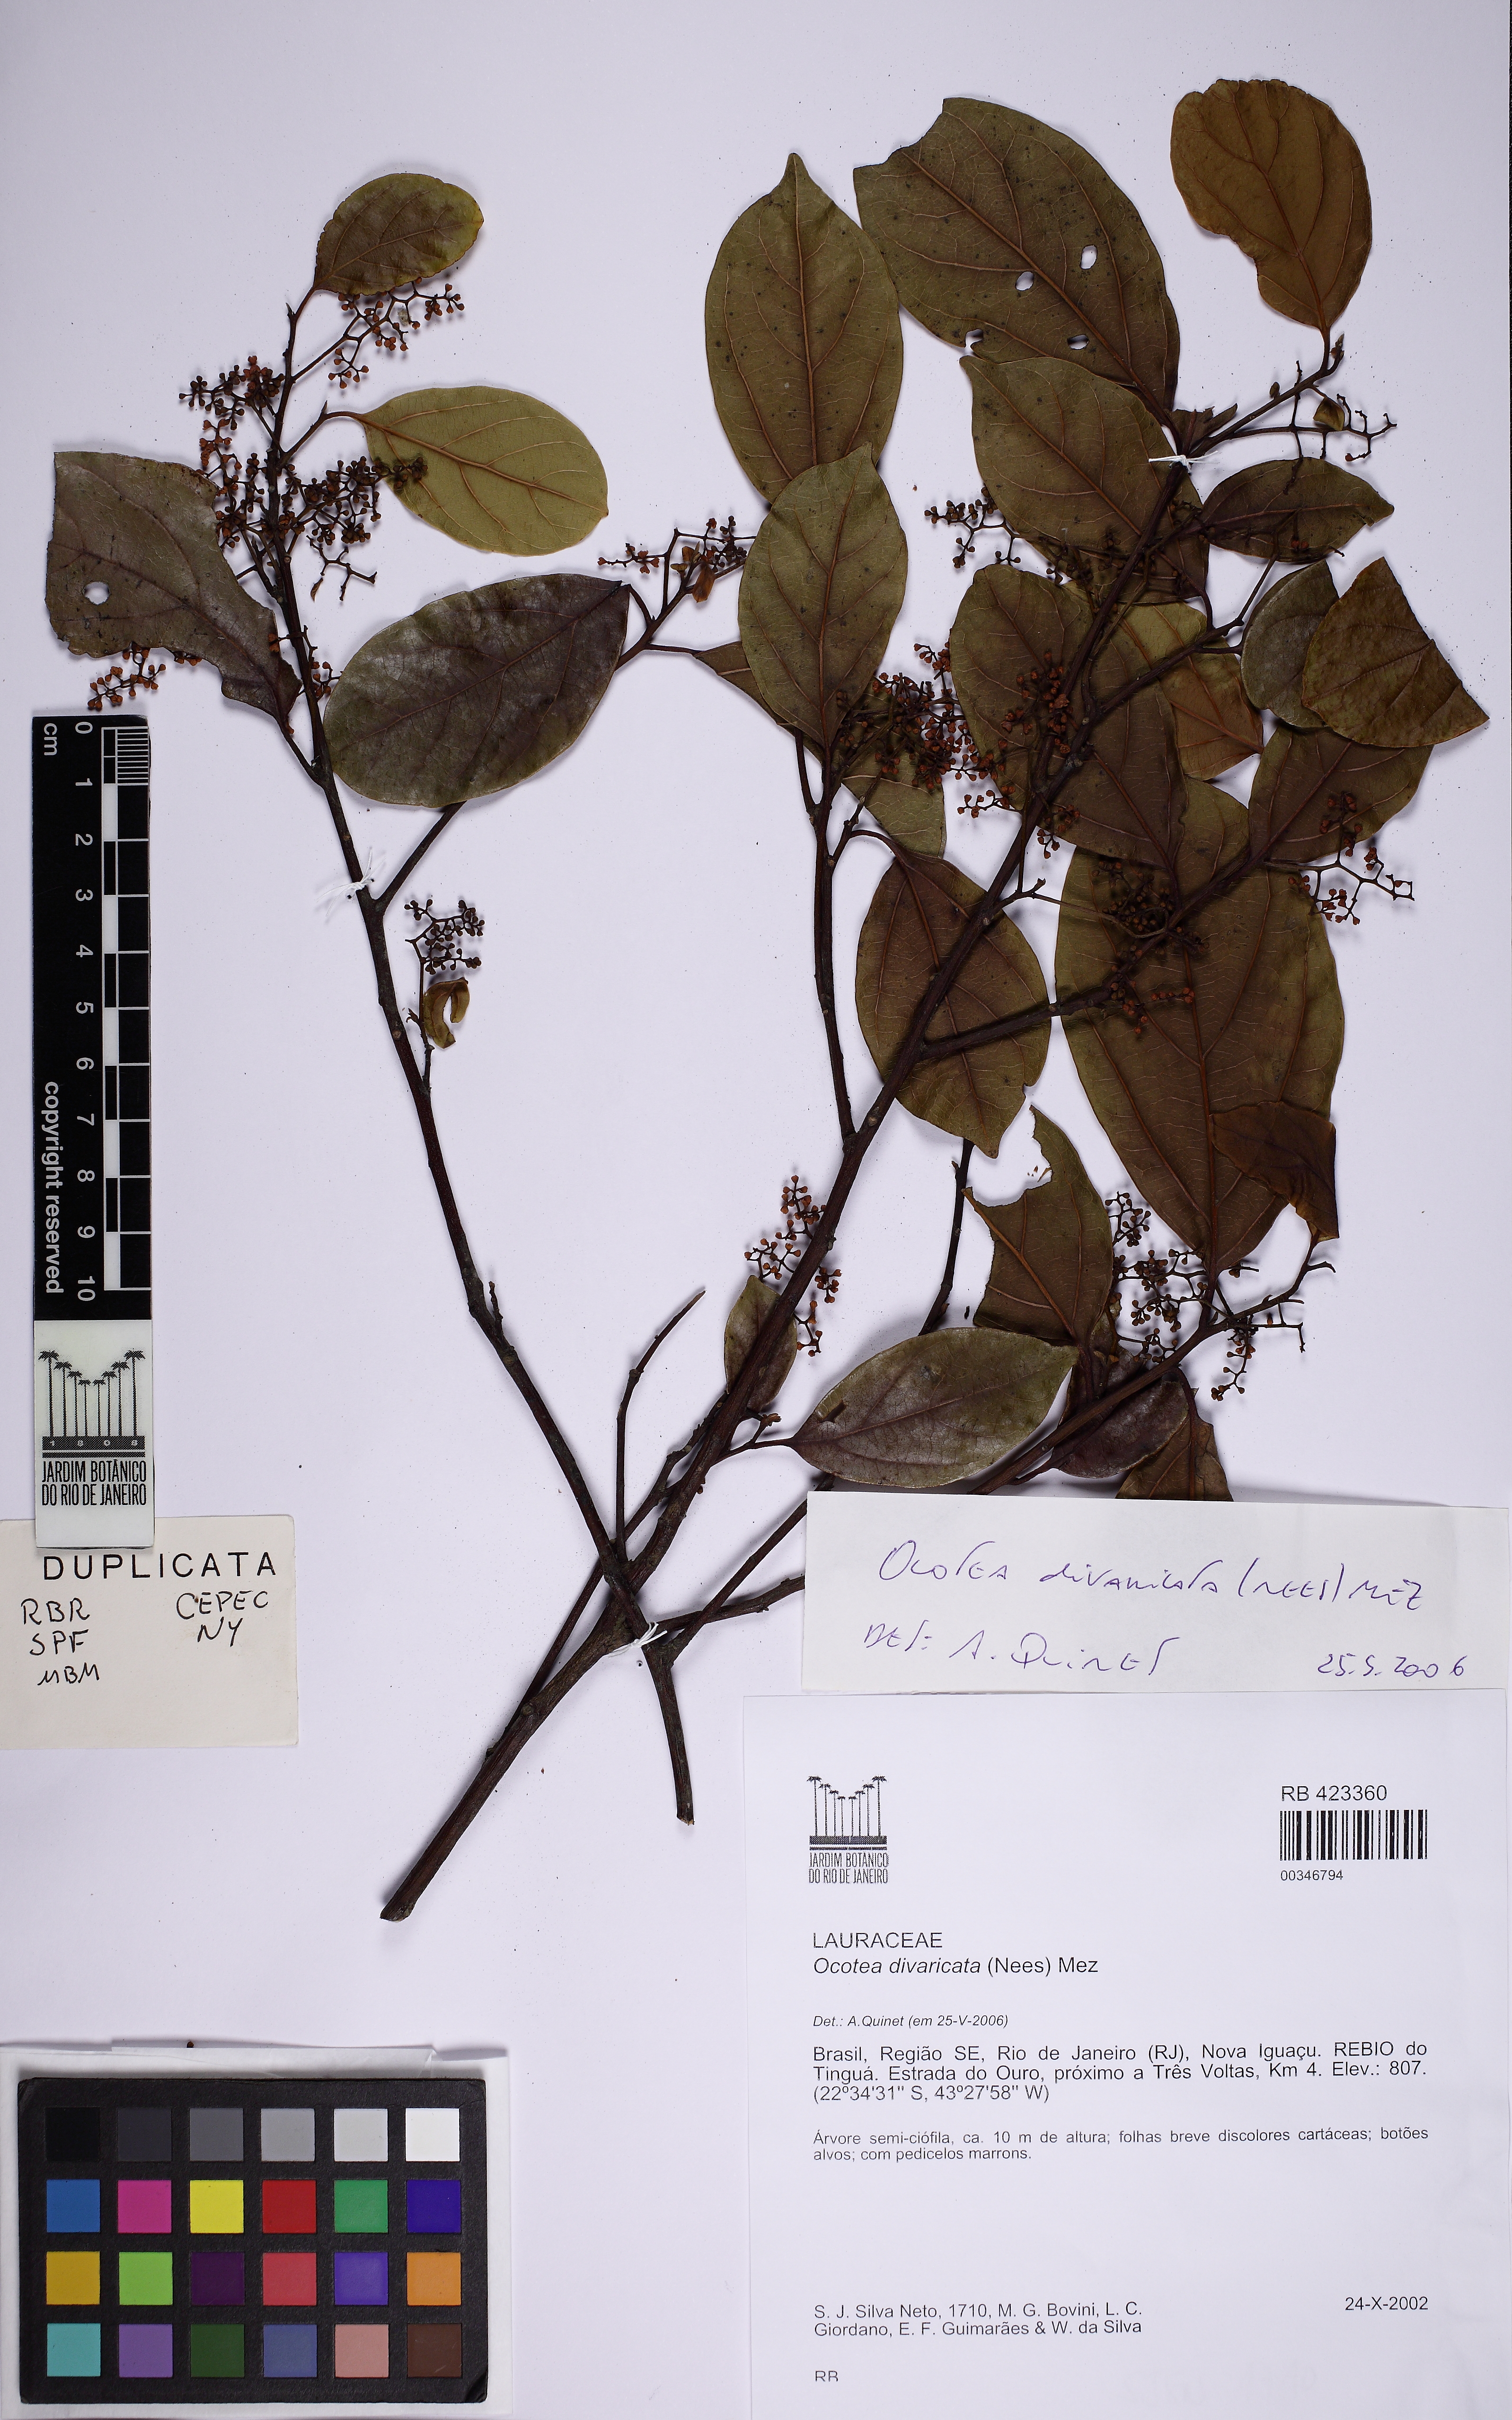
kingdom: Plantae
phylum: Tracheophyta
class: Magnoliopsida
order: Laurales
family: Lauraceae
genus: Ocotea
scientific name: Ocotea divaricata
